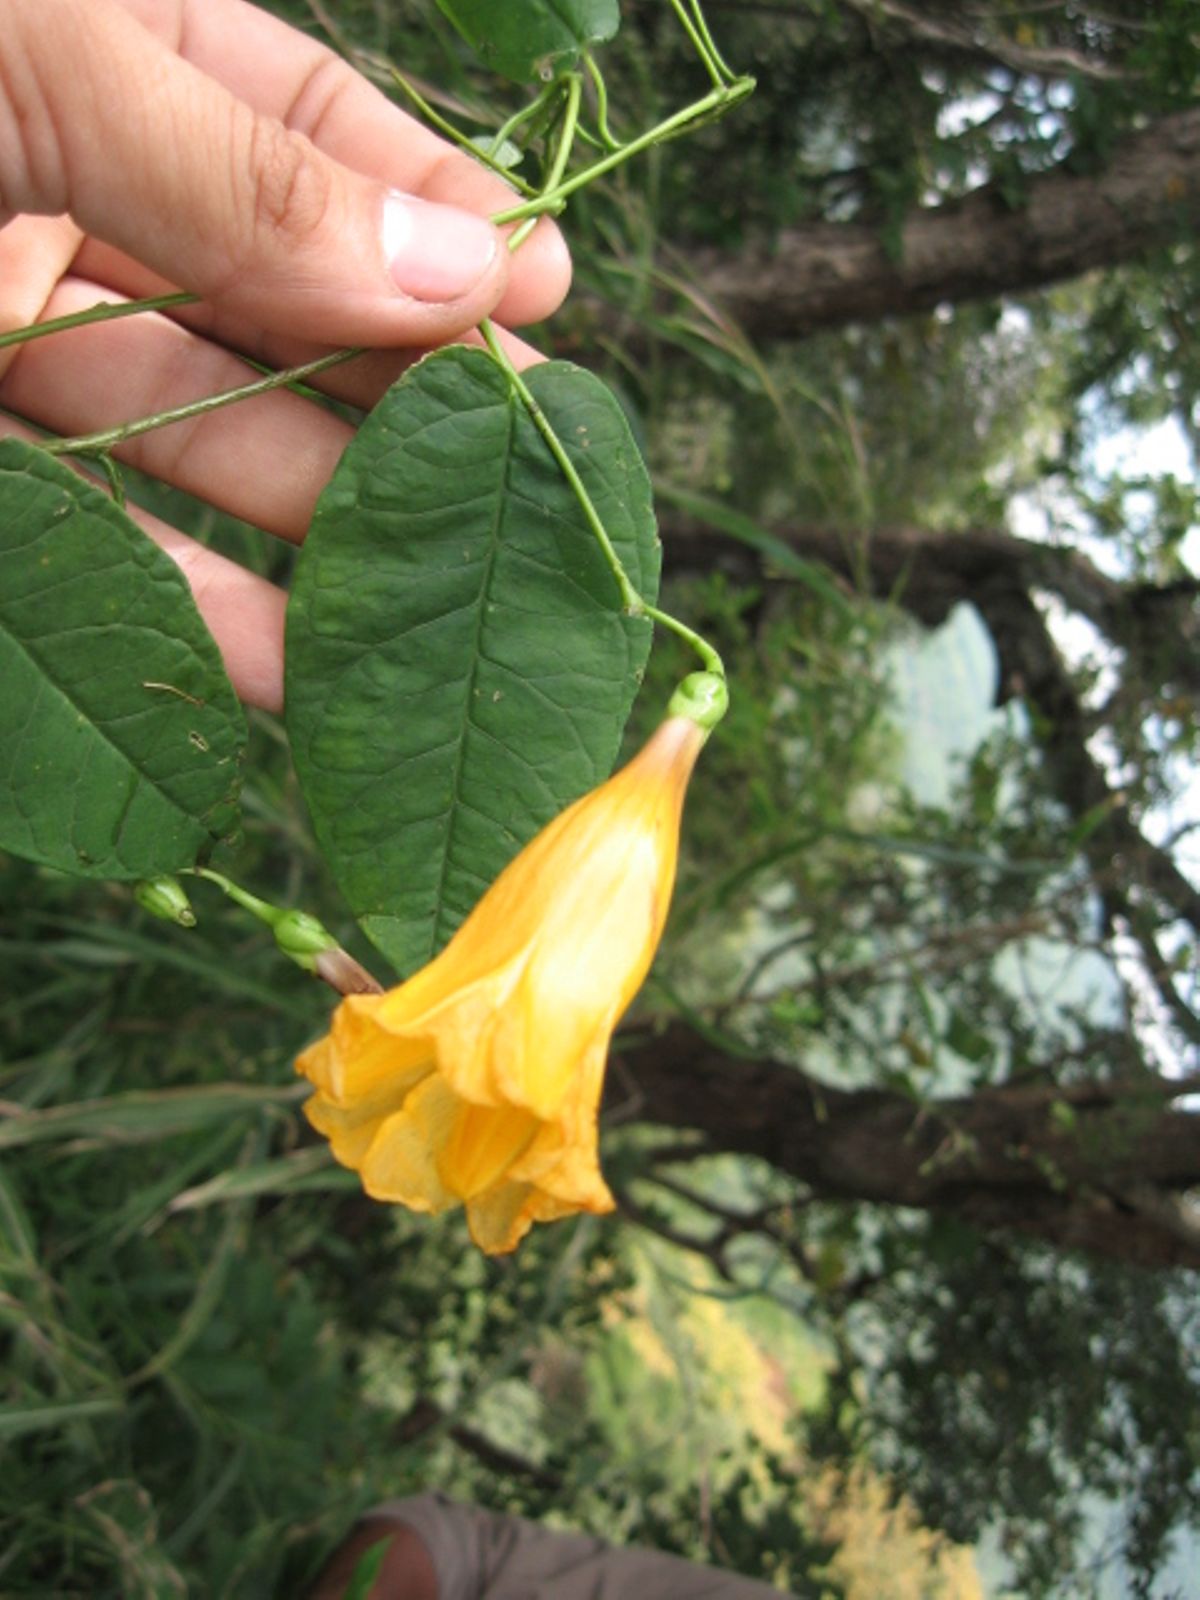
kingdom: Plantae
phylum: Tracheophyta
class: Magnoliopsida
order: Solanales
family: Convolvulaceae
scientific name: Convolvulaceae
